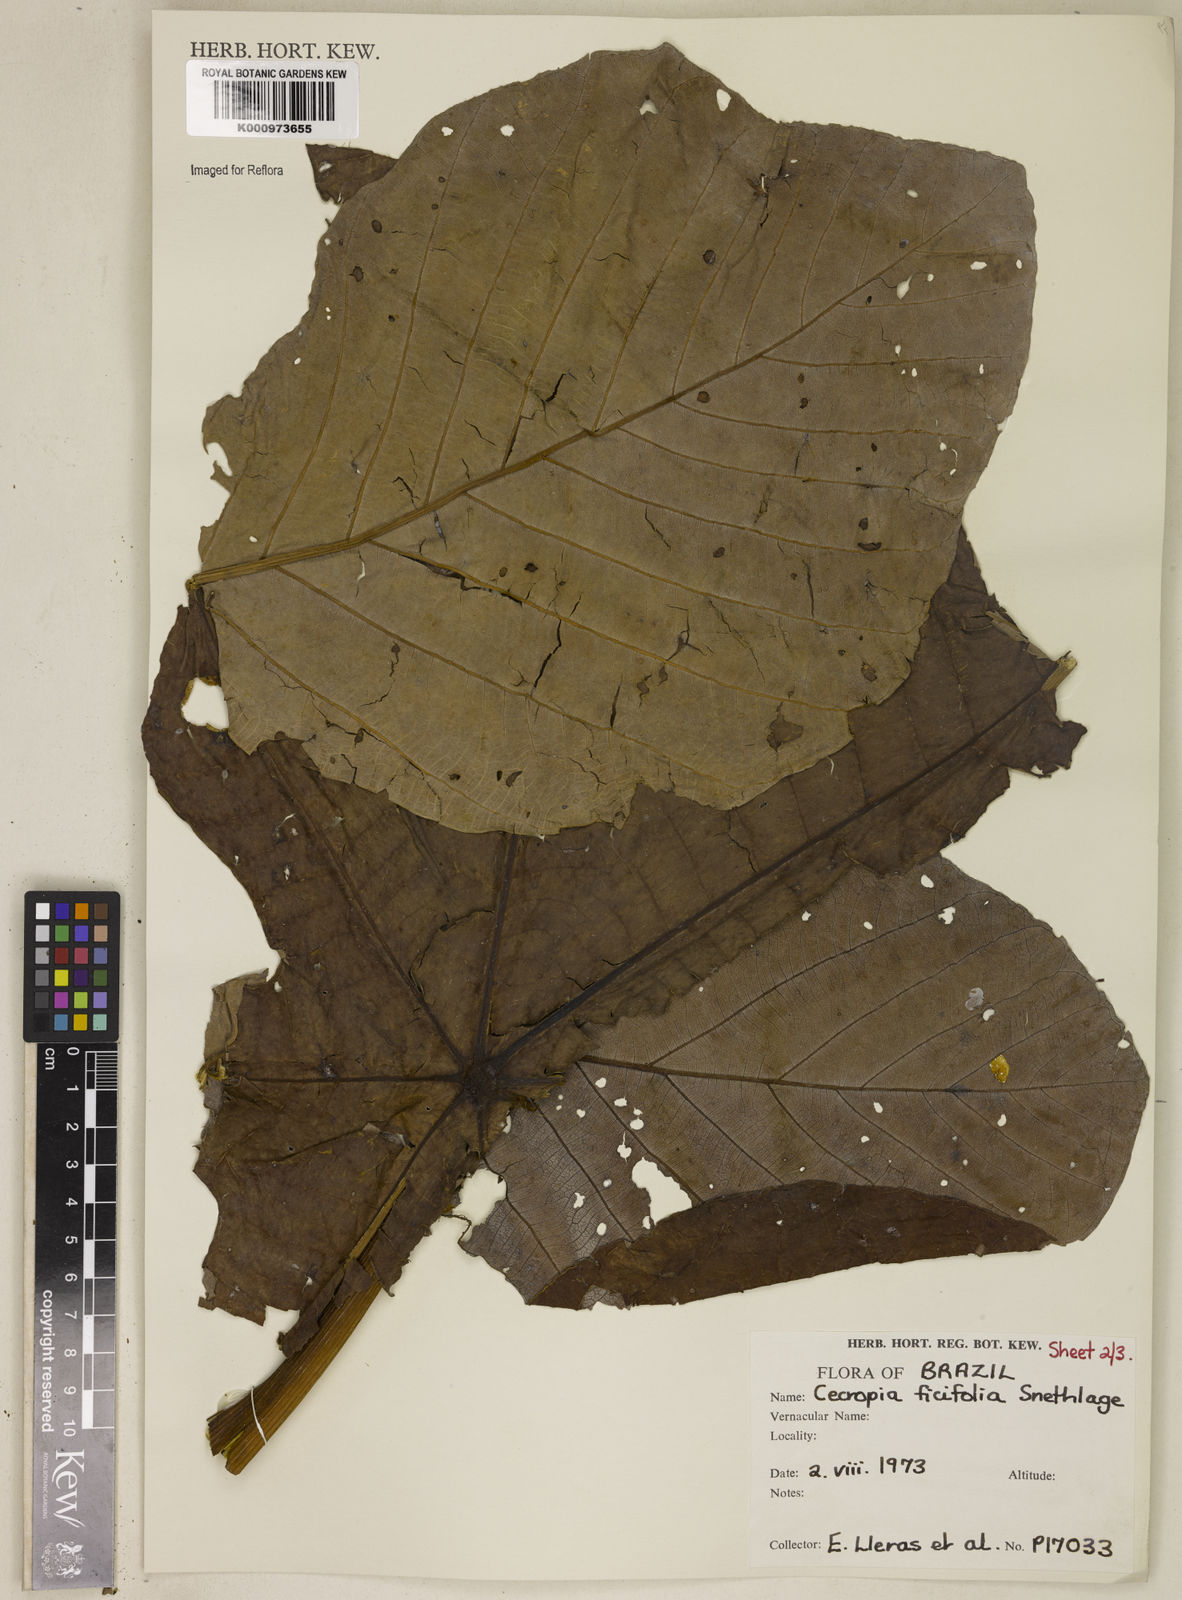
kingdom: Plantae
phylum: Tracheophyta
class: Magnoliopsida
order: Rosales
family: Urticaceae
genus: Cecropia
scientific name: Cecropia ficifolia
